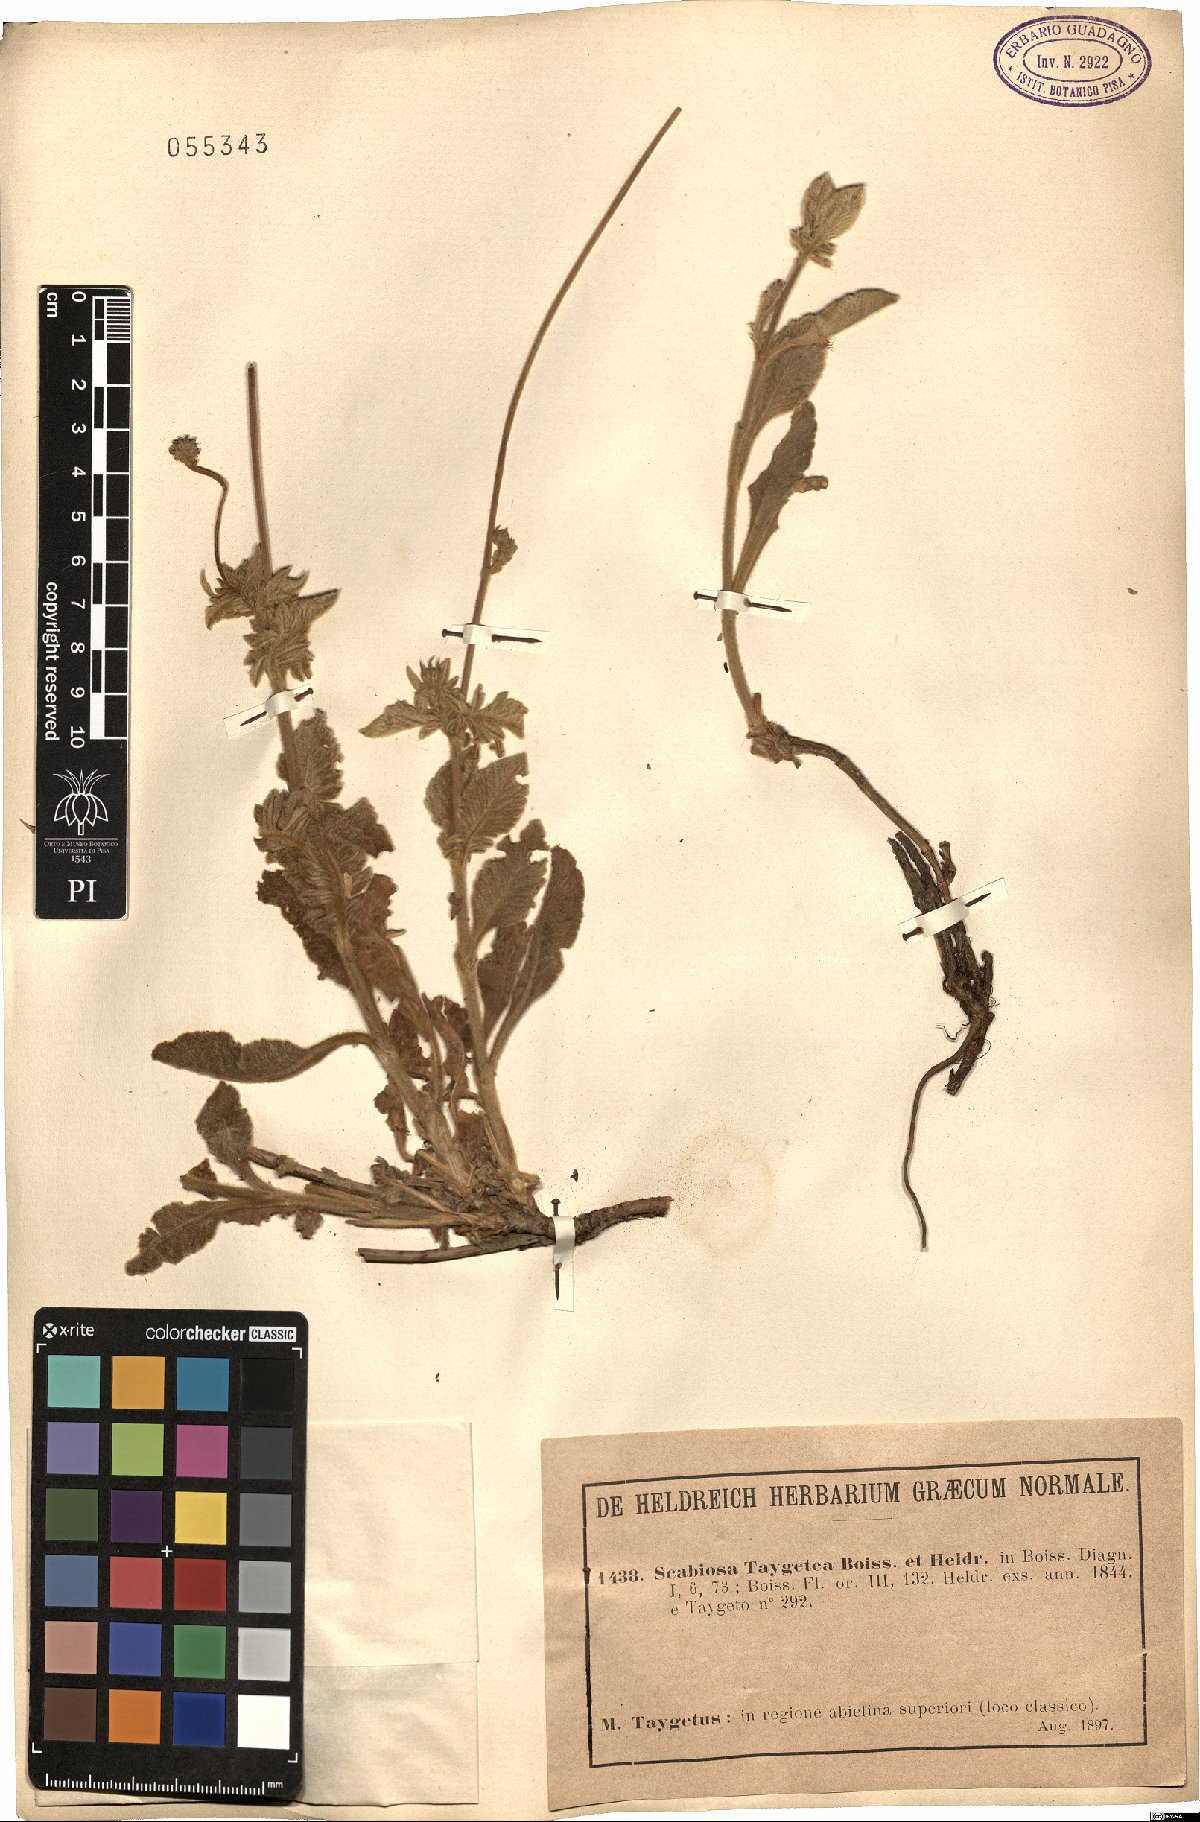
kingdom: Plantae
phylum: Tracheophyta
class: Magnoliopsida
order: Dipsacales
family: Caprifoliaceae
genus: Scabiosa
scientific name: Scabiosa taygetea
